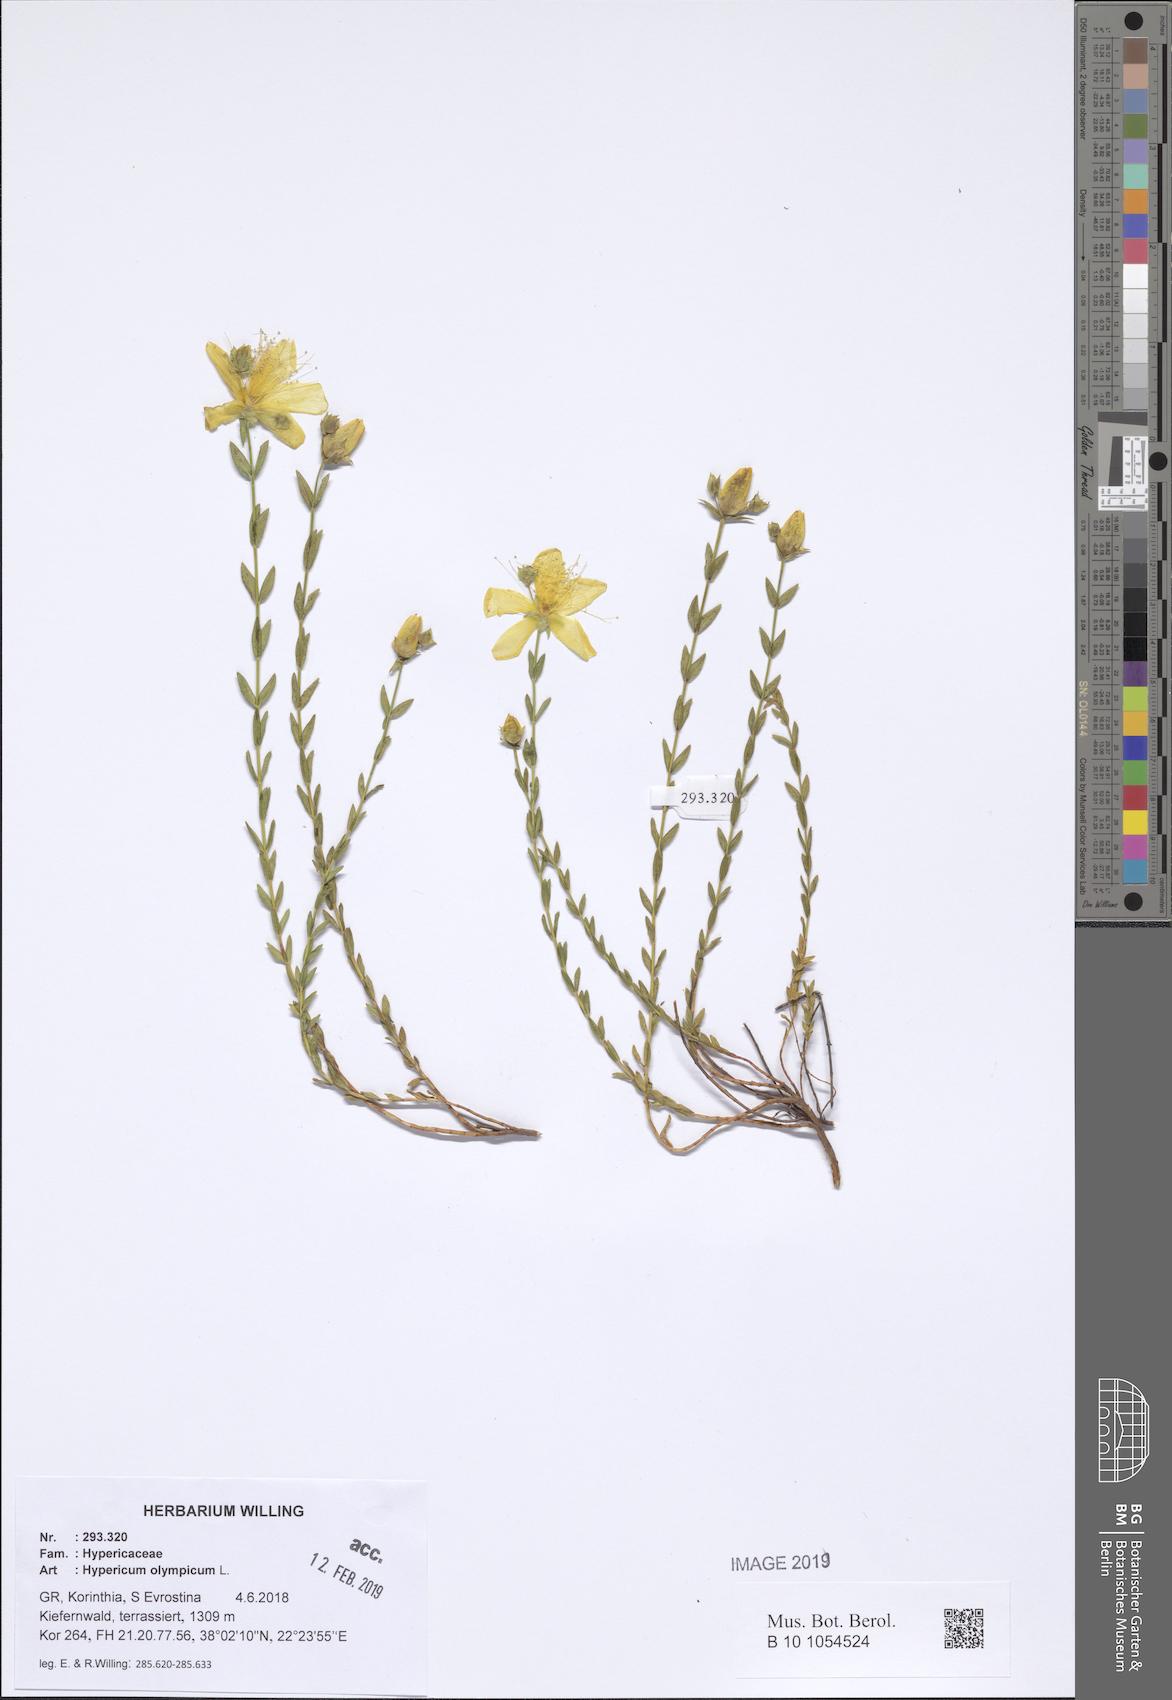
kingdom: Plantae
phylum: Tracheophyta
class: Magnoliopsida
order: Malpighiales
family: Hypericaceae
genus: Hypericum
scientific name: Hypericum olympicum
